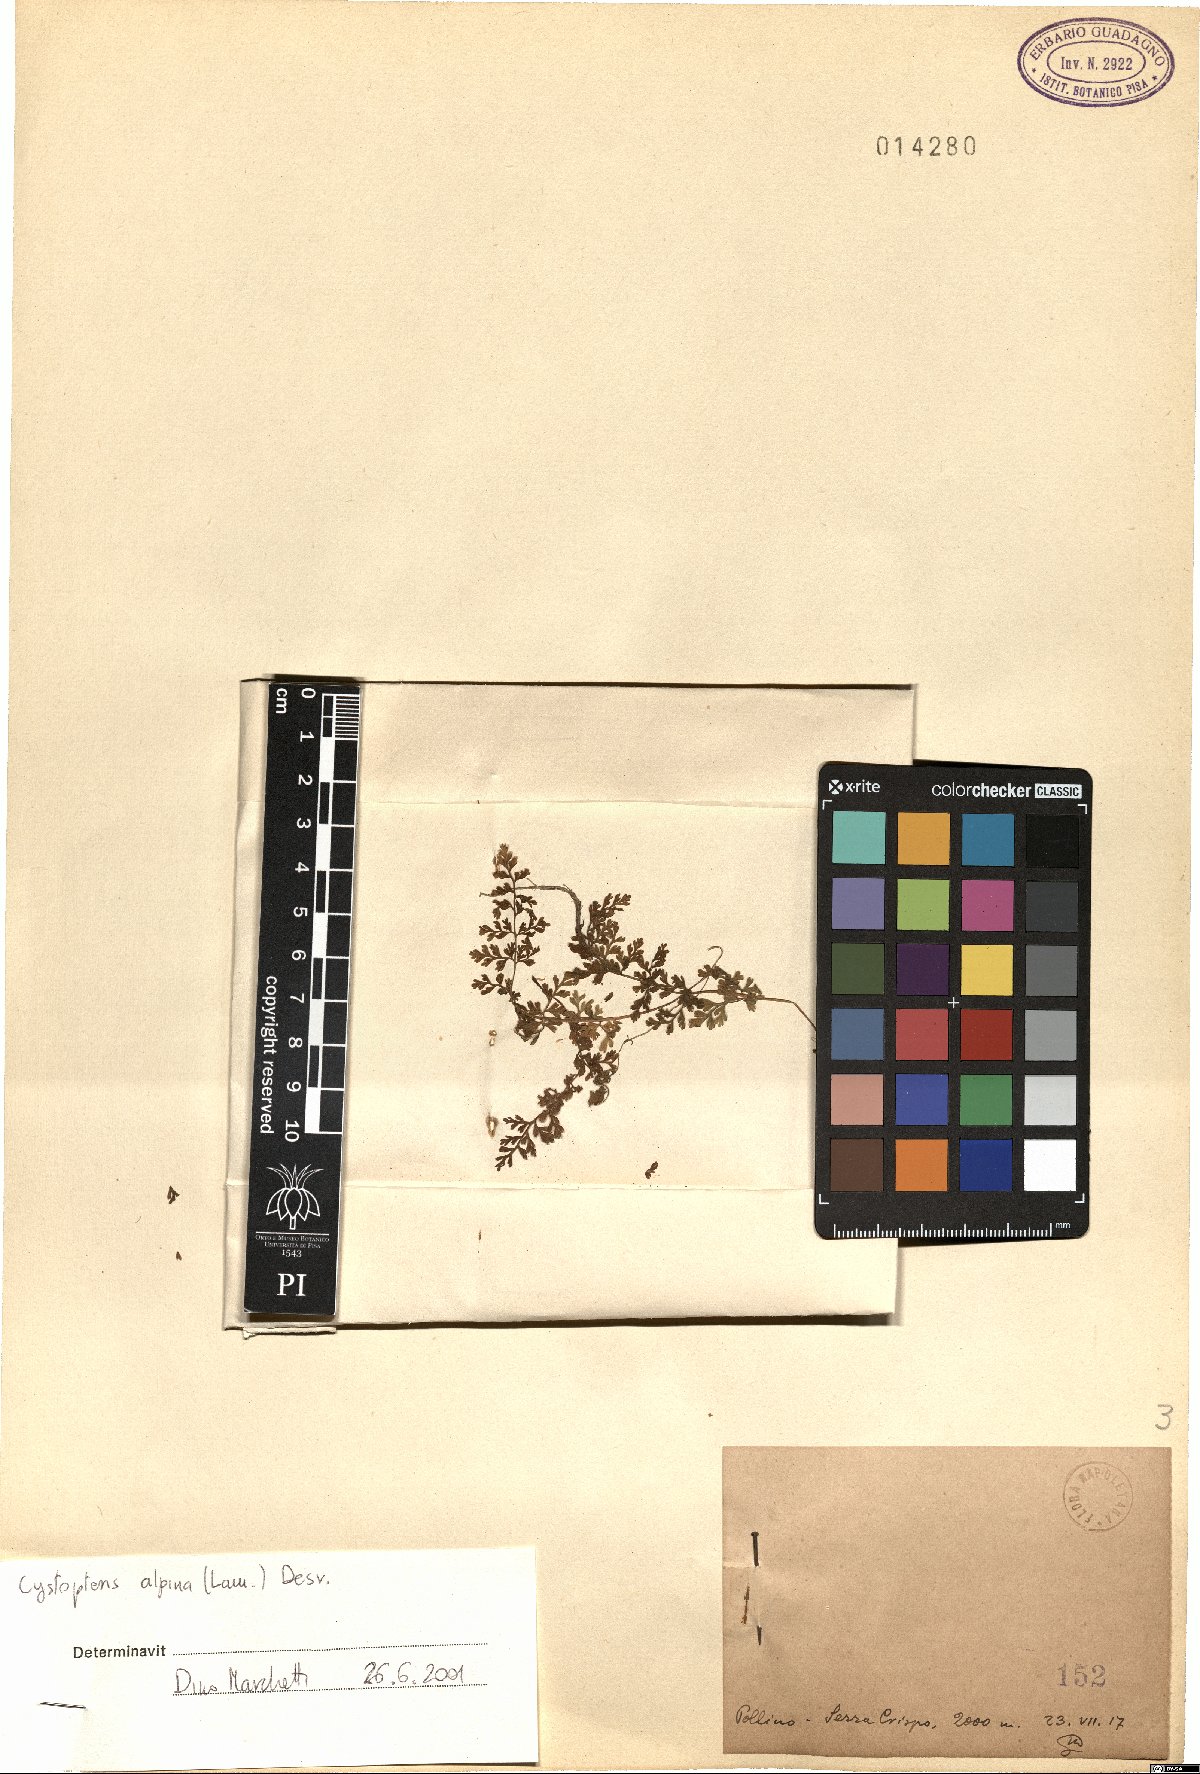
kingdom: Plantae
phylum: Tracheophyta
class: Polypodiopsida
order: Polypodiales
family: Cystopteridaceae
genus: Cystopteris
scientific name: Cystopteris alpina
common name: Alpine bladder-fern
